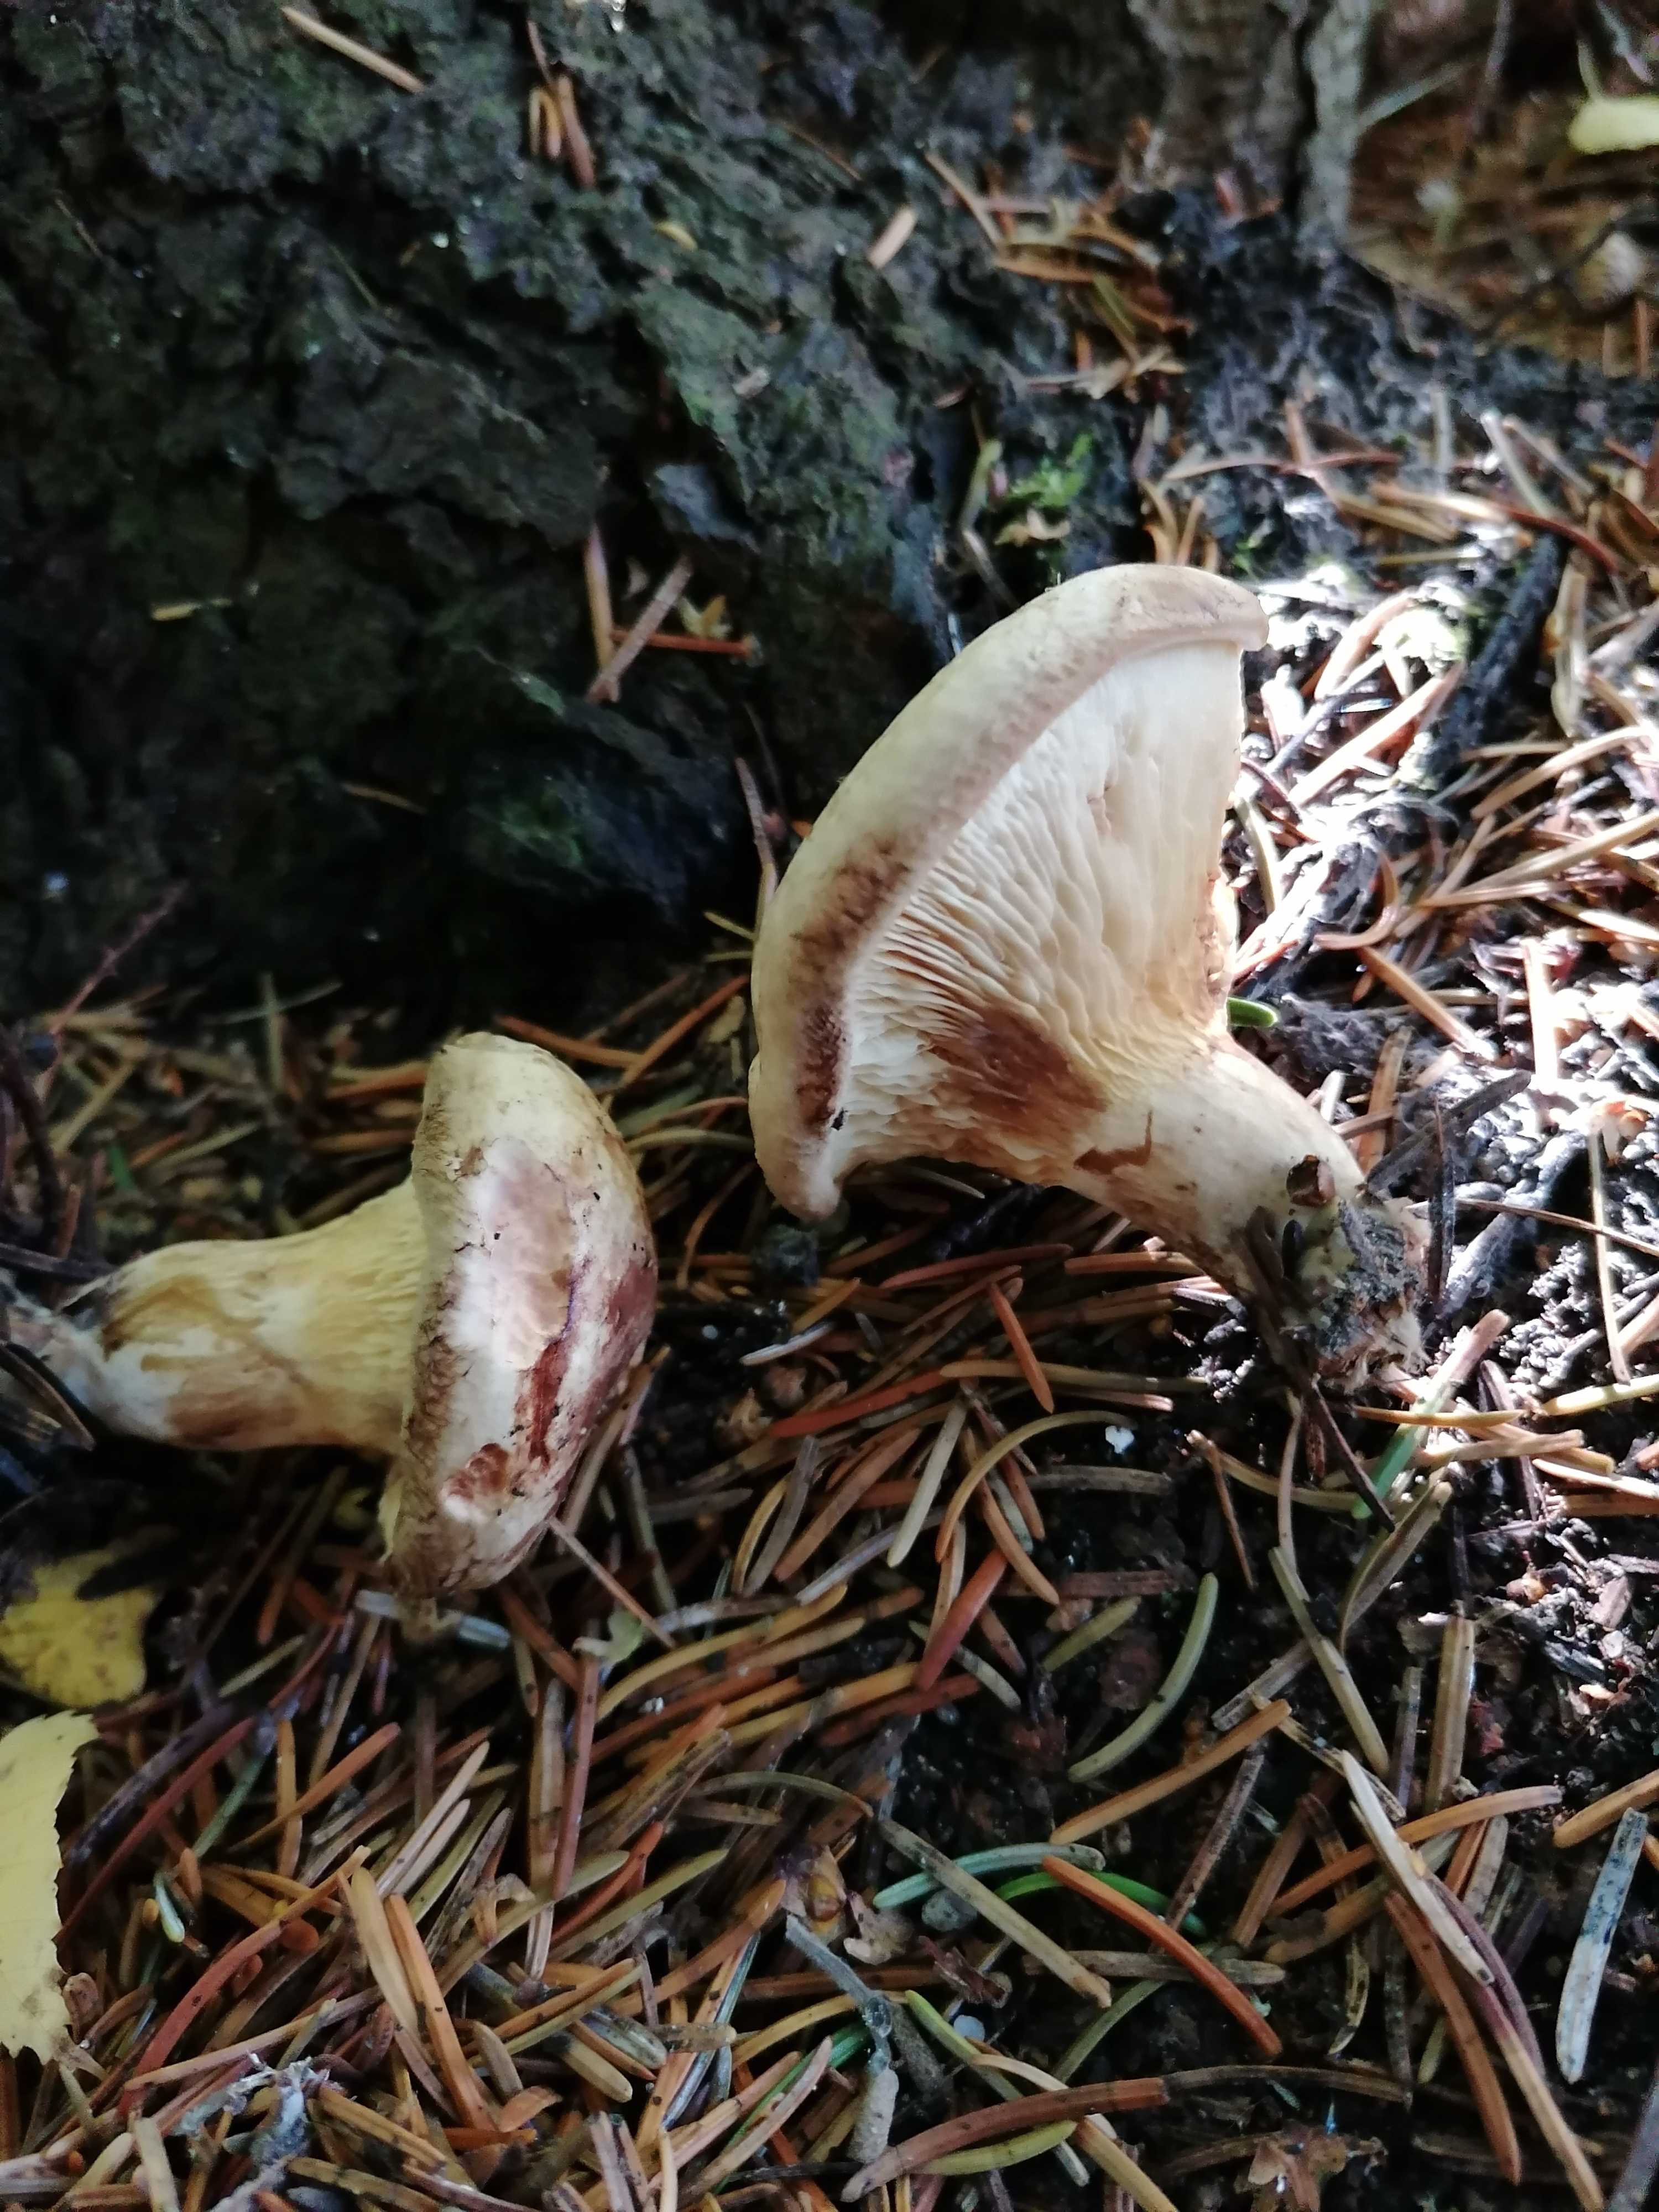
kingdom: Fungi
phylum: Basidiomycota
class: Agaricomycetes
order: Boletales
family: Paxillaceae
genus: Paxillus
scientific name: Paxillus involutus
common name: almindelig netbladhat
